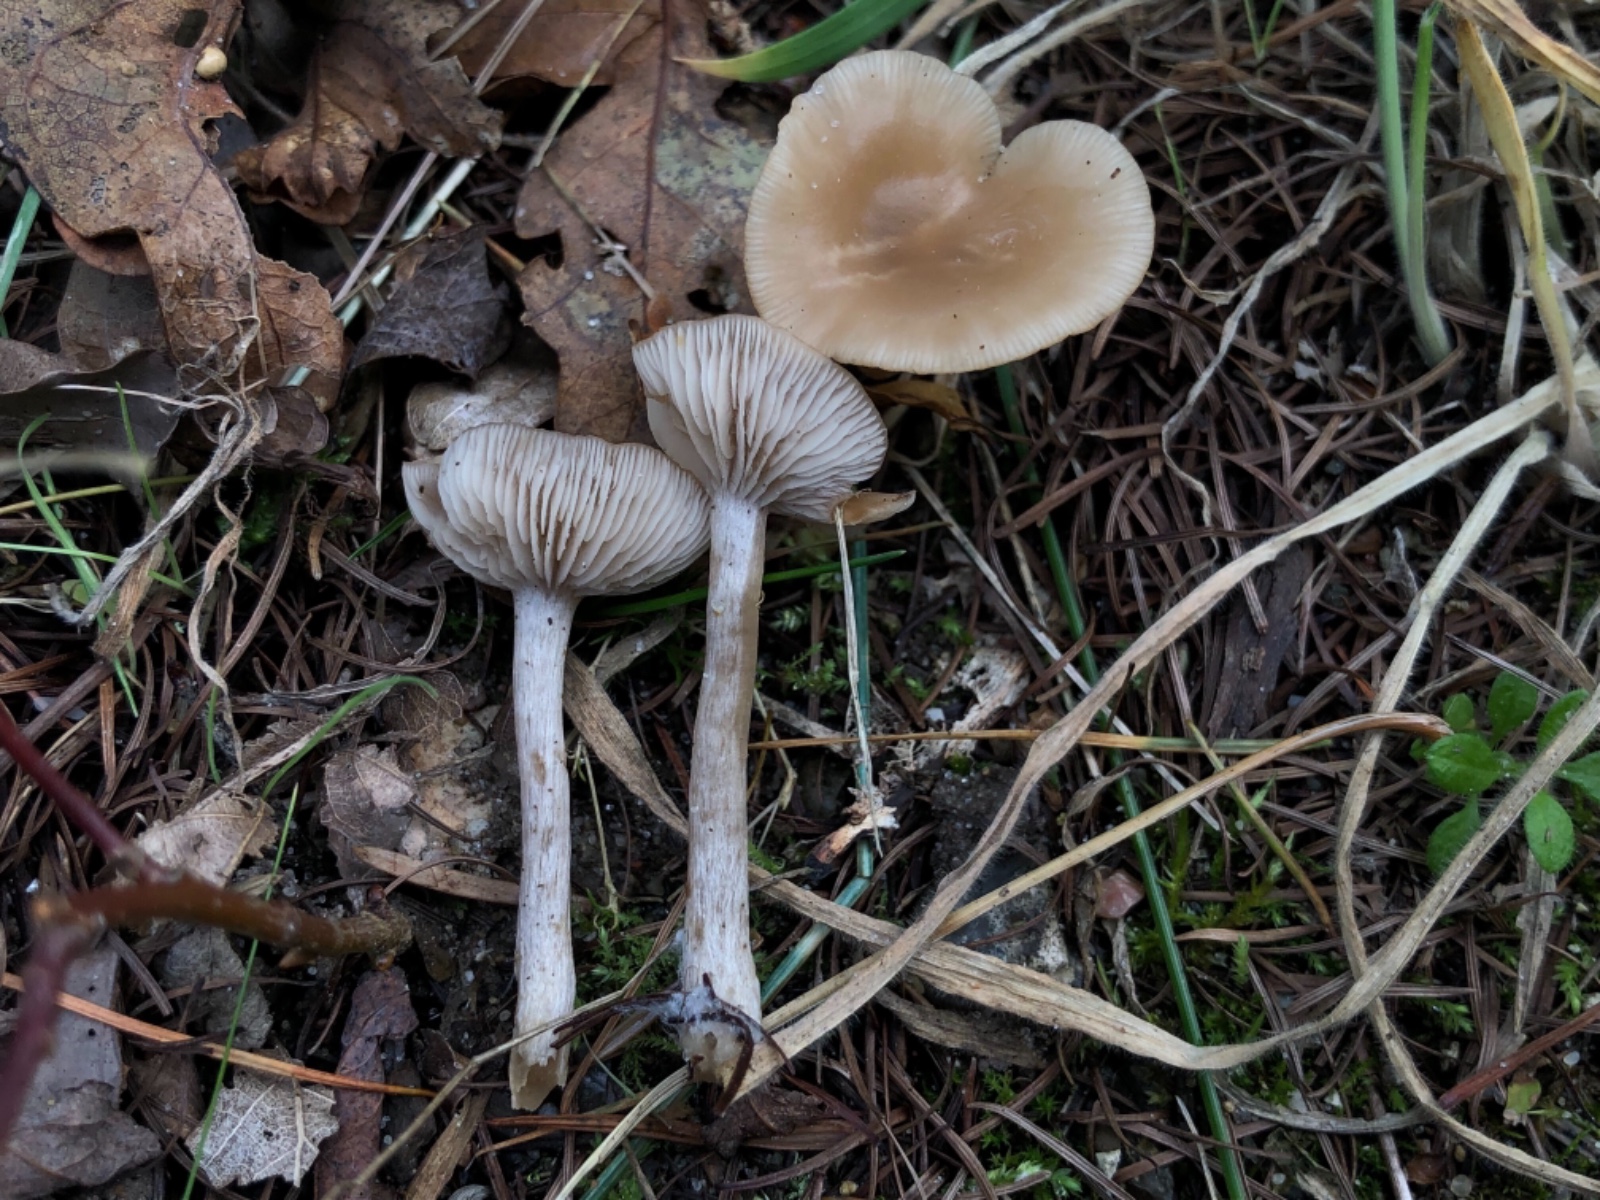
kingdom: Fungi
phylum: Basidiomycota
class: Agaricomycetes
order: Agaricales
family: Tricholomataceae
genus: Clitocybe
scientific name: Clitocybe fragrans
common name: vellugtende tragthat
